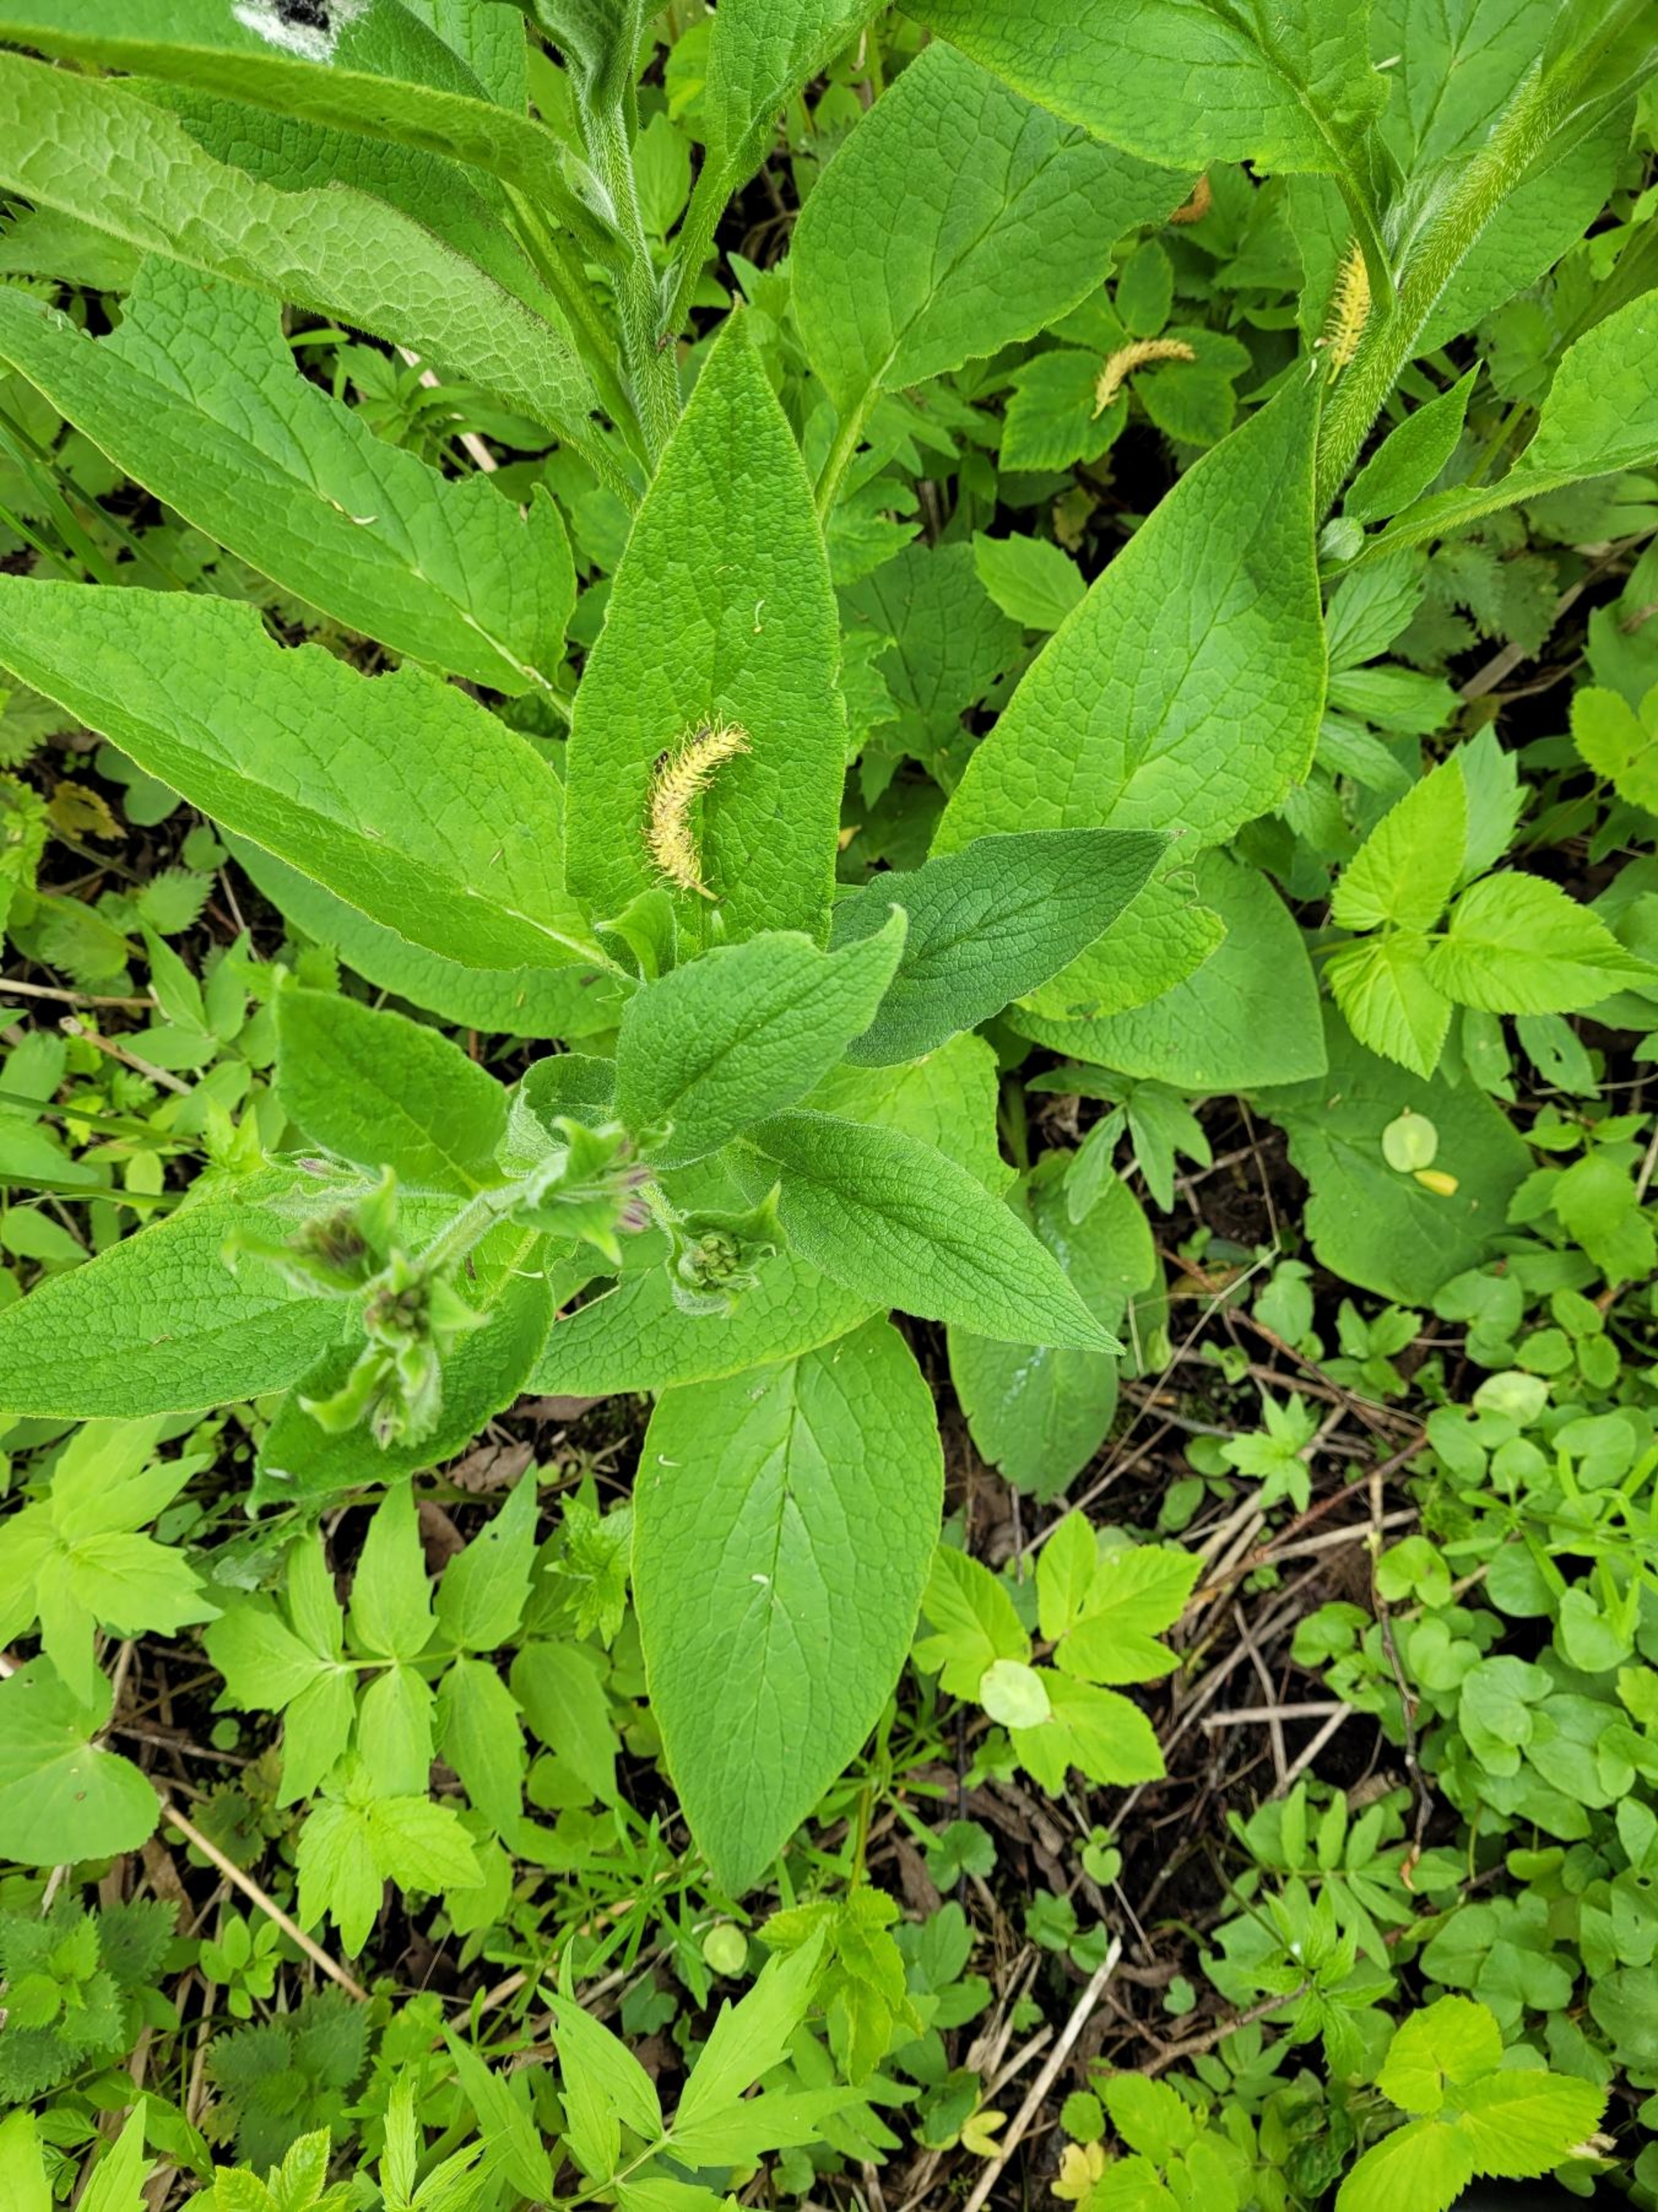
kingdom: Plantae
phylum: Tracheophyta
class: Magnoliopsida
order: Boraginales
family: Boraginaceae
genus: Symphytum
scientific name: Symphytum uplandicum
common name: Foder-kulsukker
